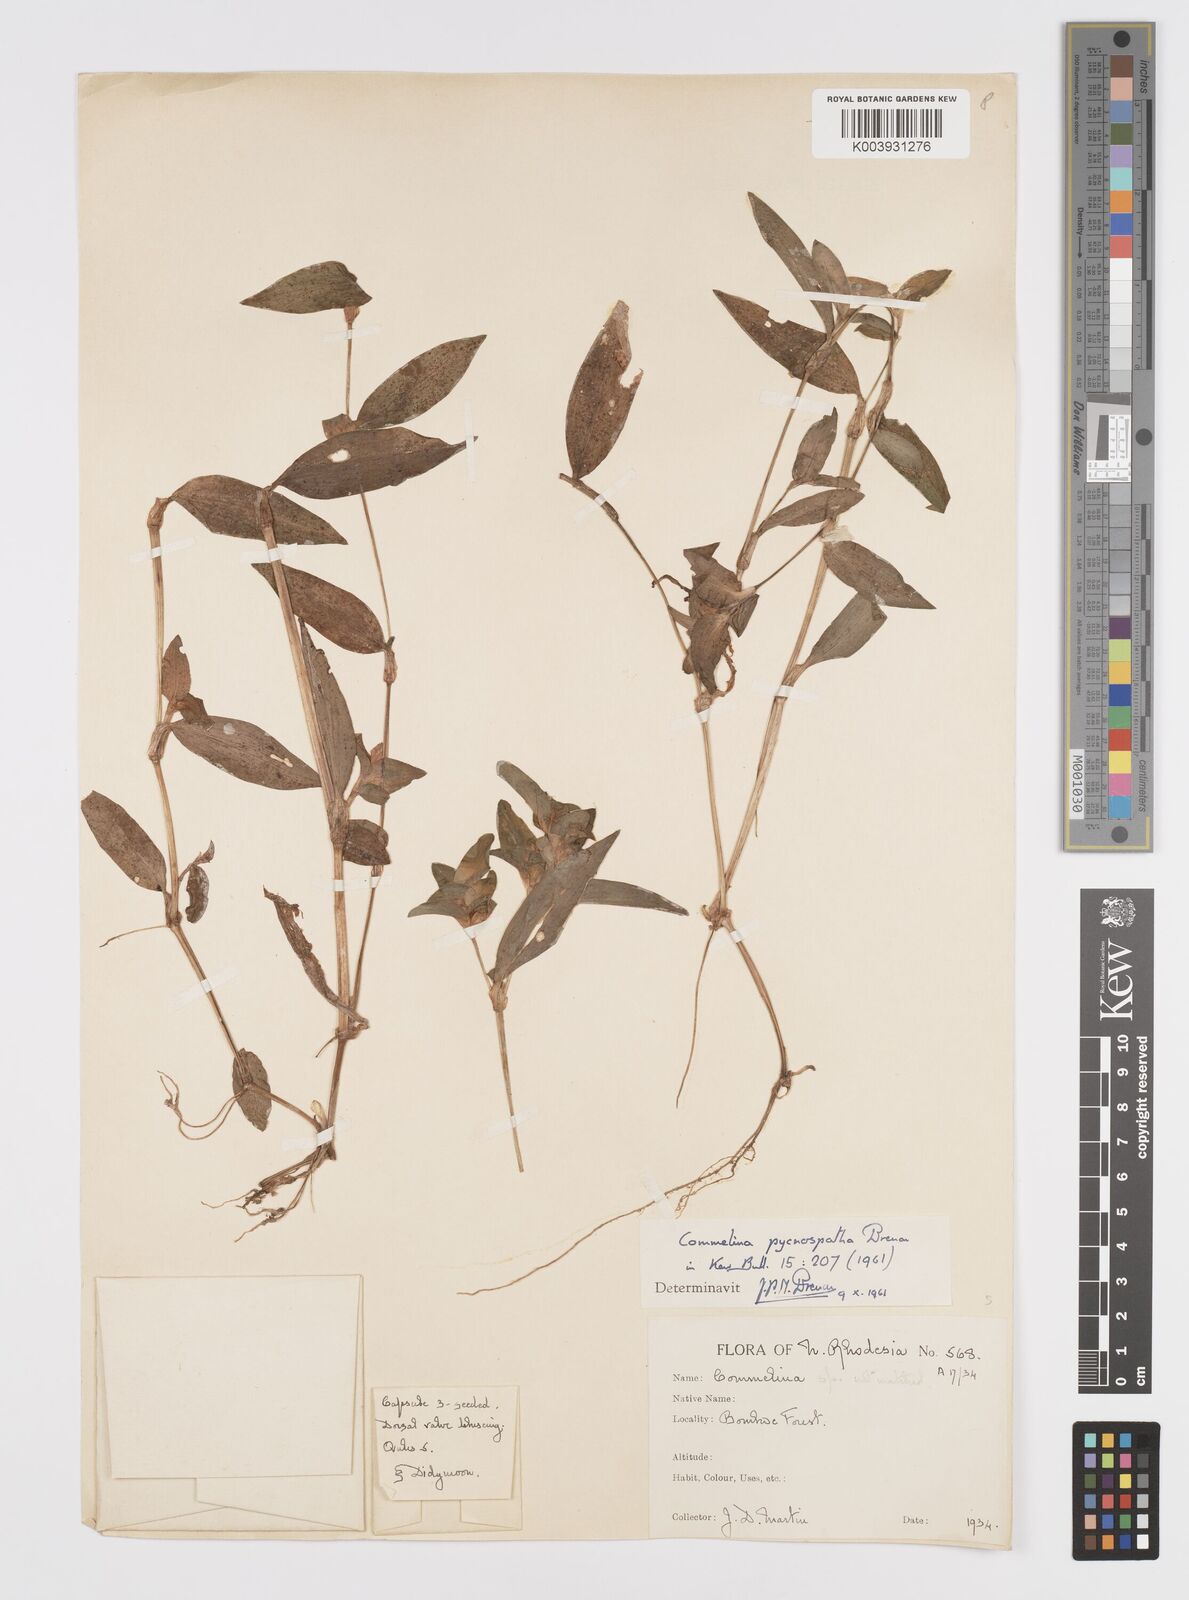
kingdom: Plantae
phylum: Tracheophyta
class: Liliopsida
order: Commelinales
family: Commelinaceae
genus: Commelina
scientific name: Commelina pycnospatha
